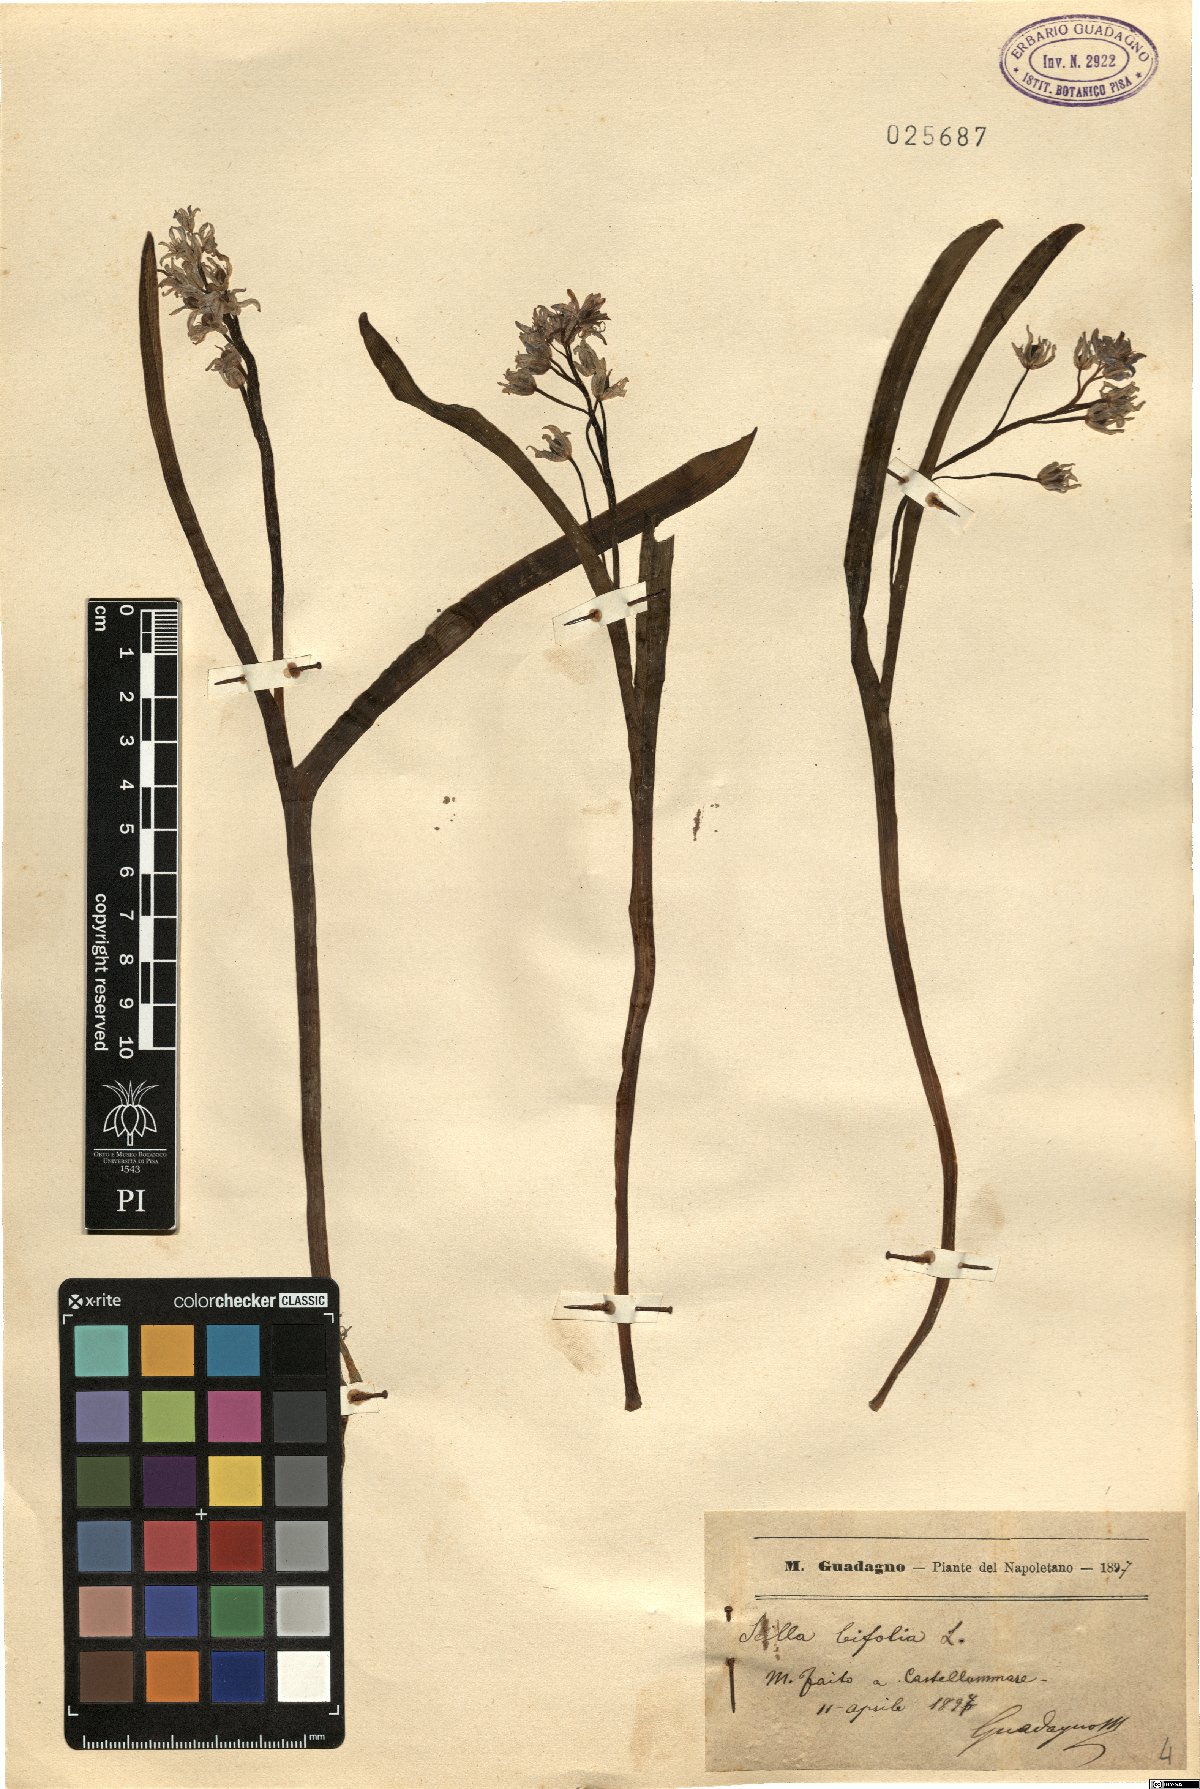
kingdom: Plantae
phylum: Tracheophyta
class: Liliopsida
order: Asparagales
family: Asparagaceae
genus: Scilla
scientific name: Scilla bifolia
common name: Alpine squill
